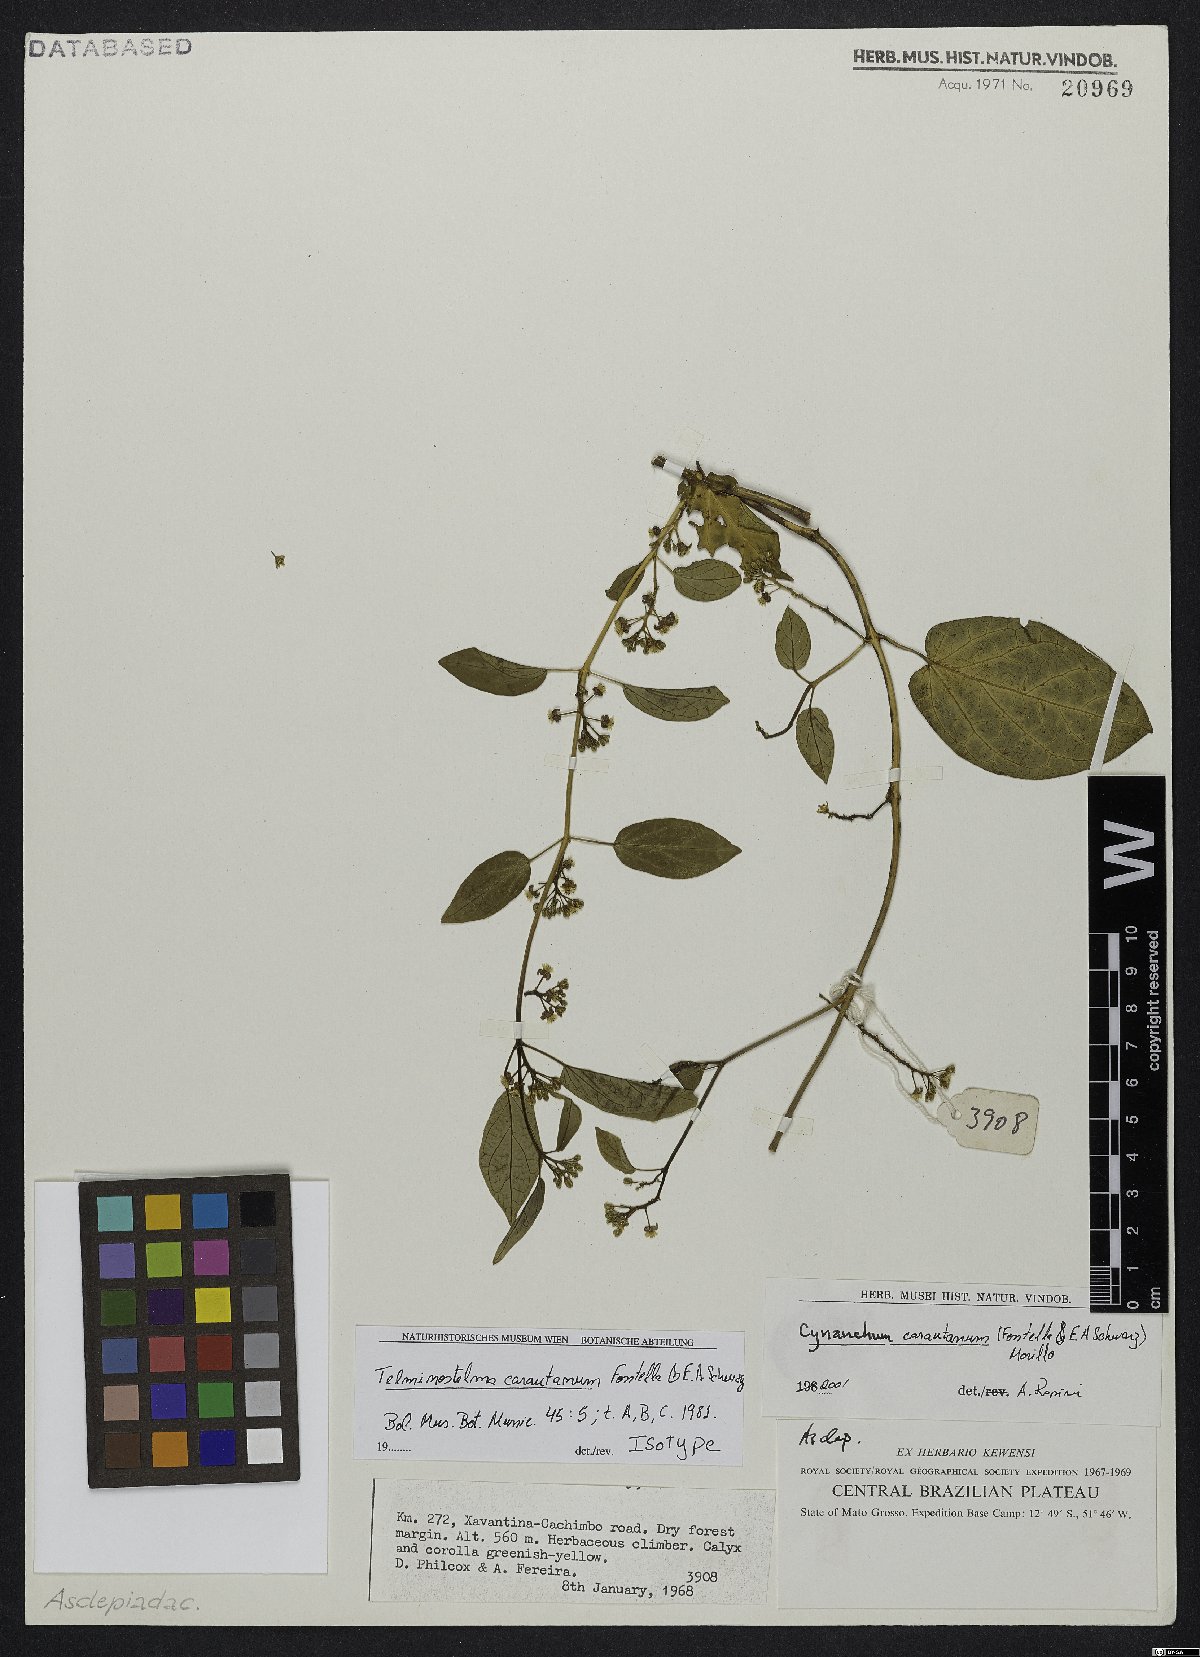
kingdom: Plantae
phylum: Tracheophyta
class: Magnoliopsida
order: Gentianales
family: Apocynaceae
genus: Cynanchum
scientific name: Cynanchum carautanum
